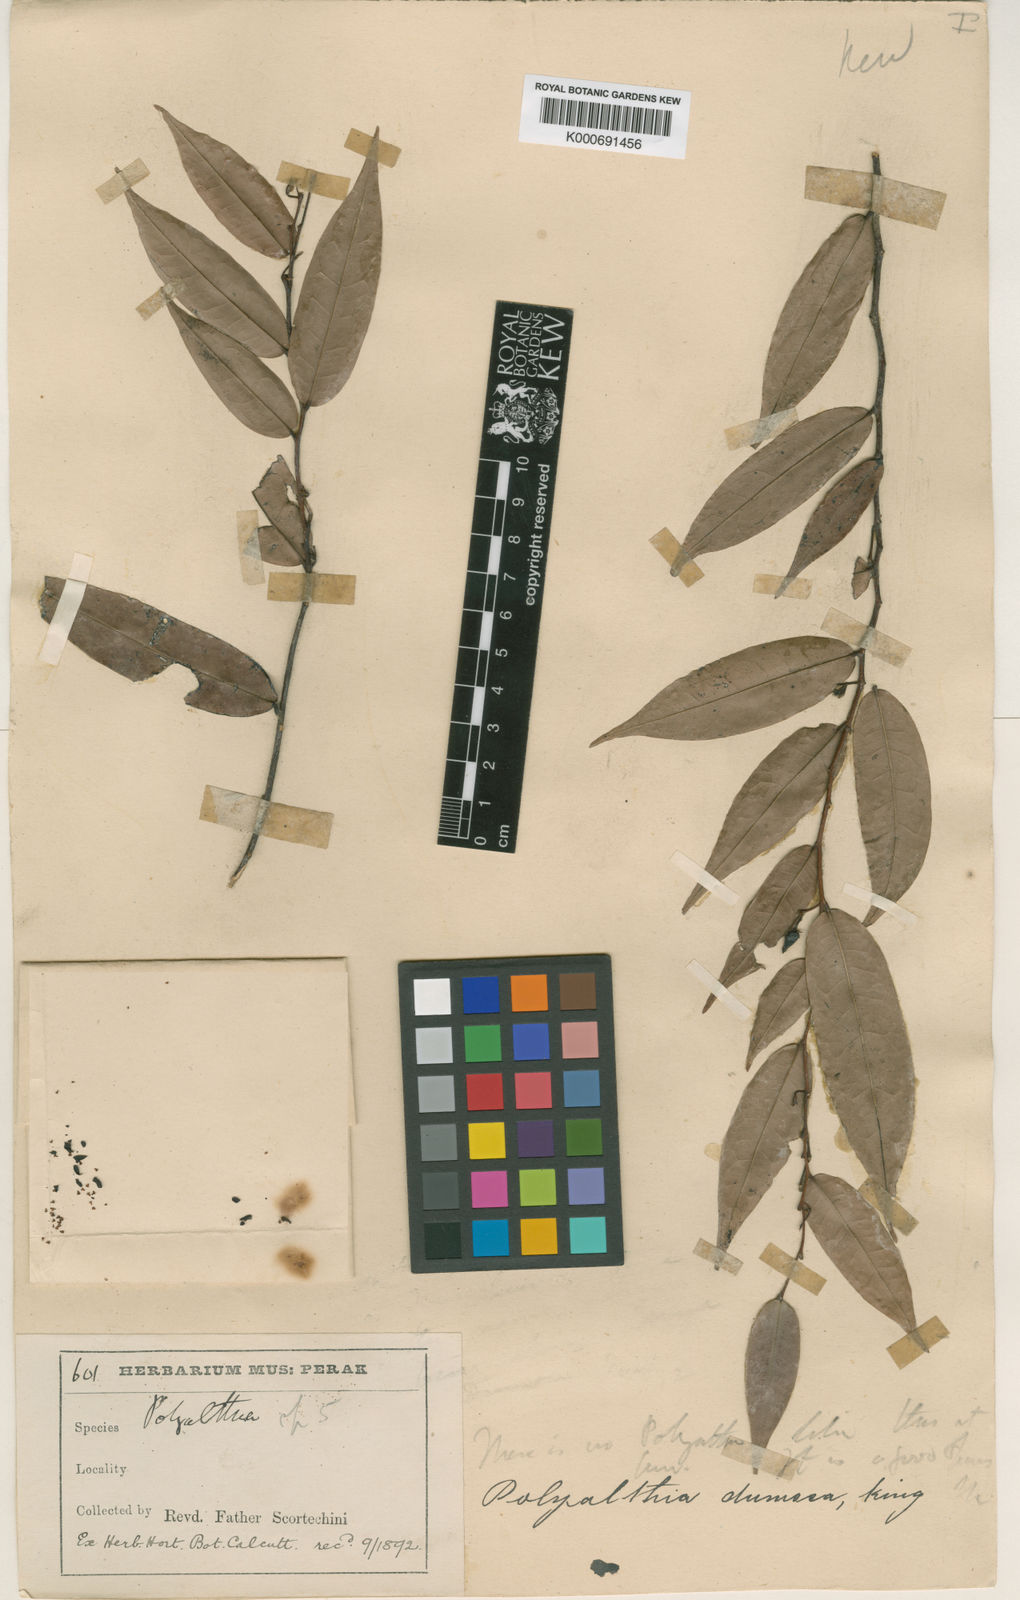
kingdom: Plantae
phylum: Tracheophyta
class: Magnoliopsida
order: Magnoliales
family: Annonaceae
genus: Polyalthia
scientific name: Polyalthia dumosa
